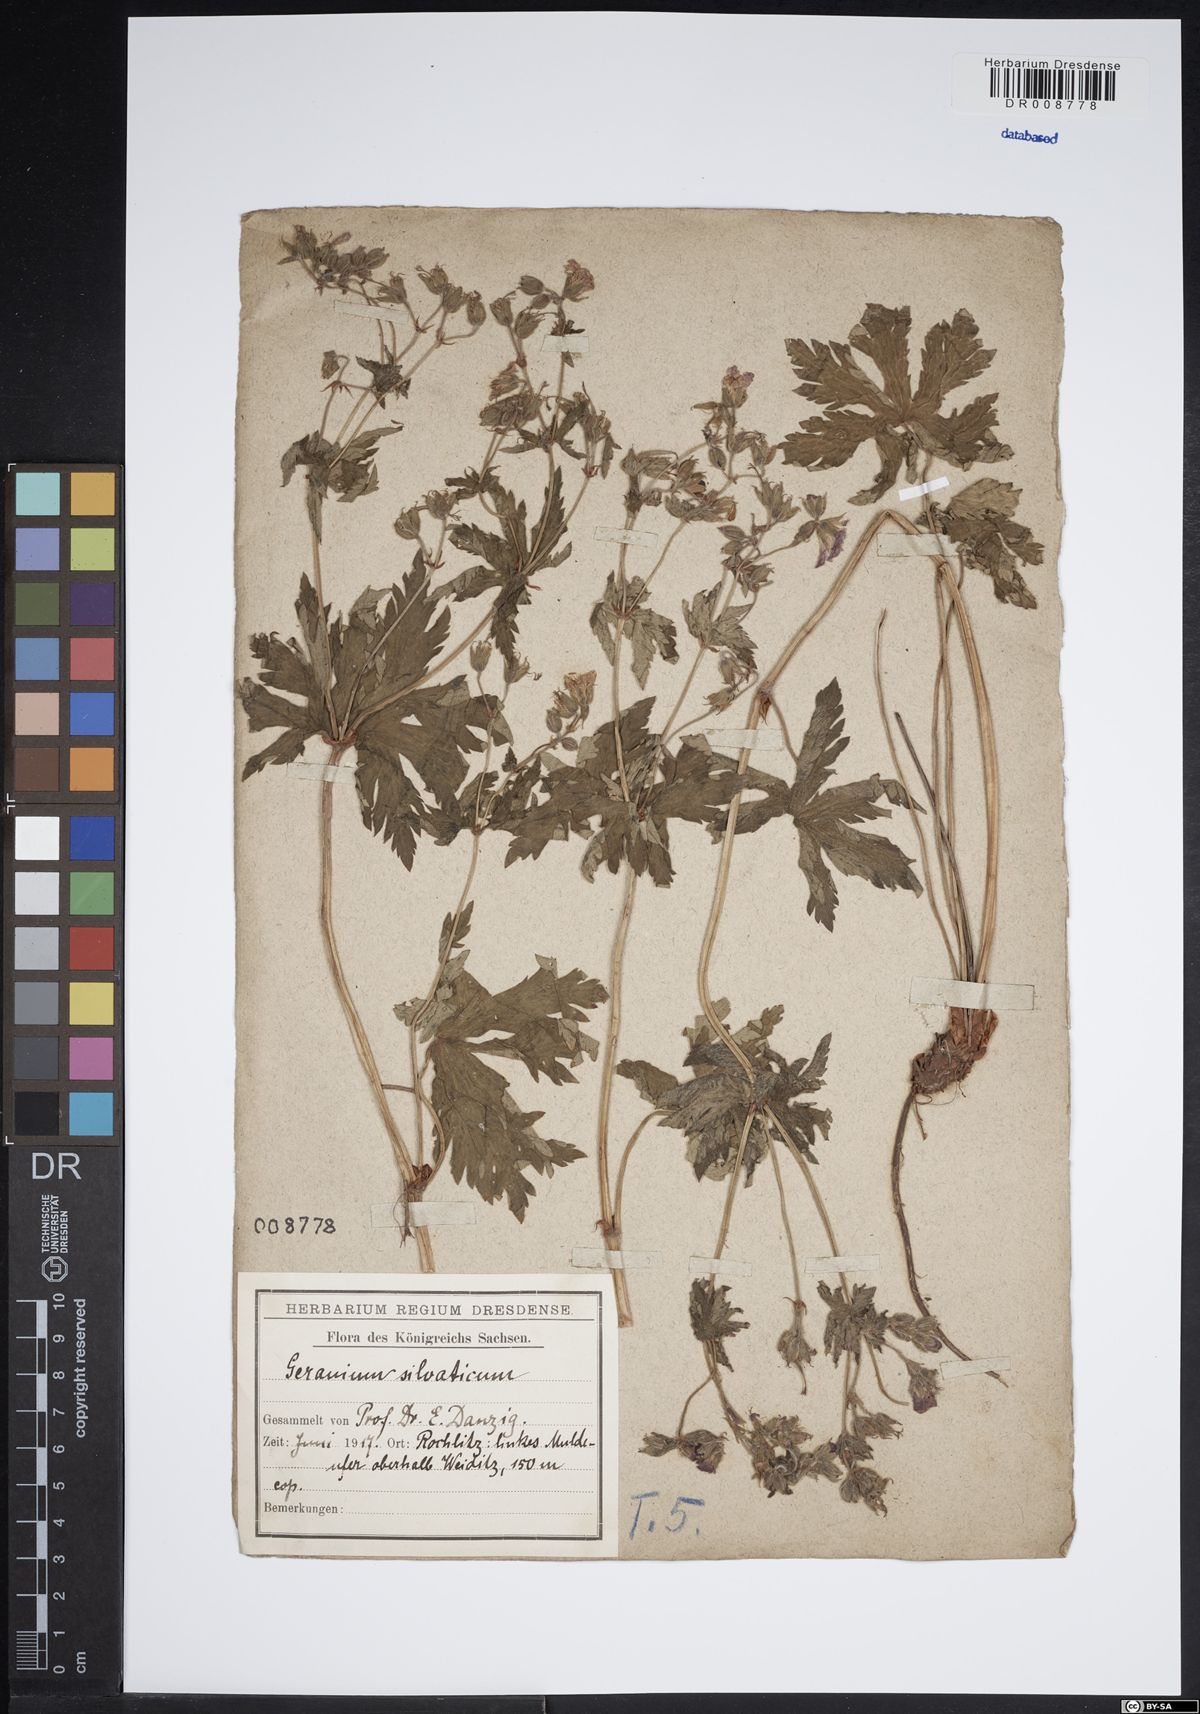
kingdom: Plantae
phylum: Tracheophyta
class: Magnoliopsida
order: Geraniales
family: Geraniaceae
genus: Geranium
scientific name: Geranium sylvaticum
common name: Wood crane's-bill
